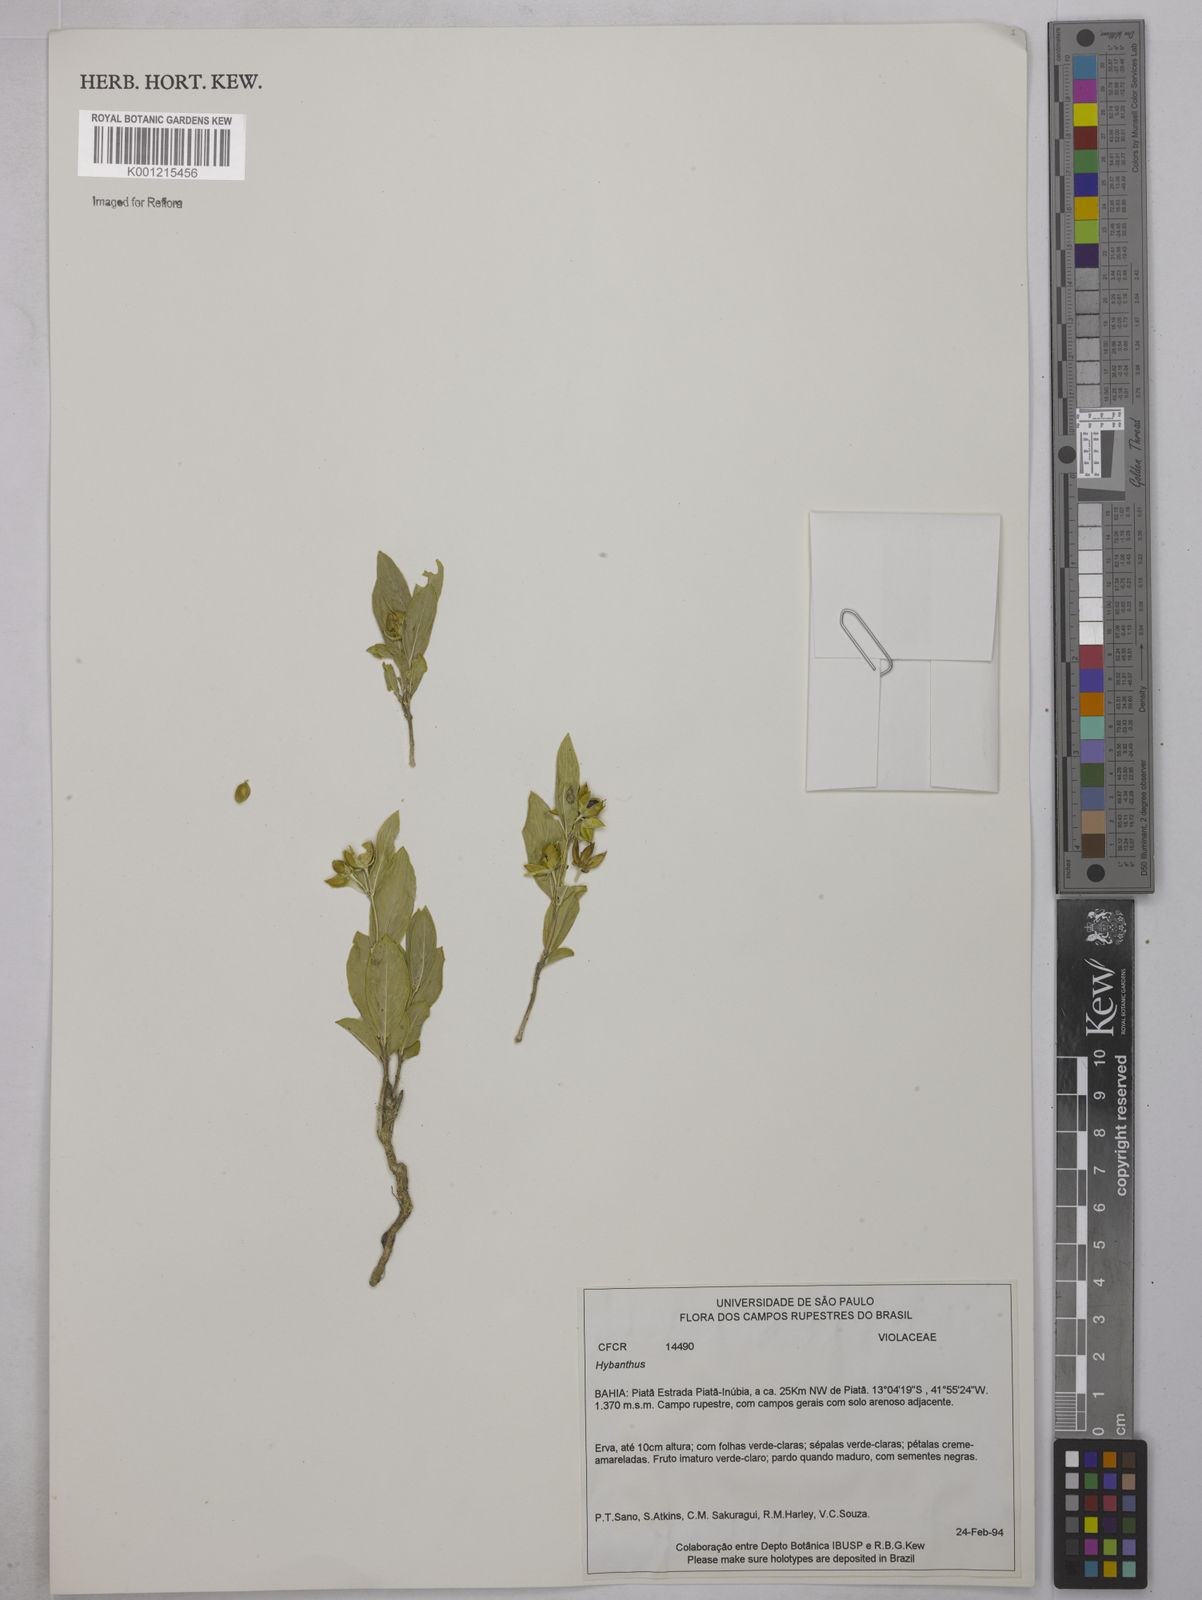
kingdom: Plantae
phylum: Tracheophyta
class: Magnoliopsida
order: Malpighiales
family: Violaceae
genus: Hybanthus
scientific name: Hybanthus
